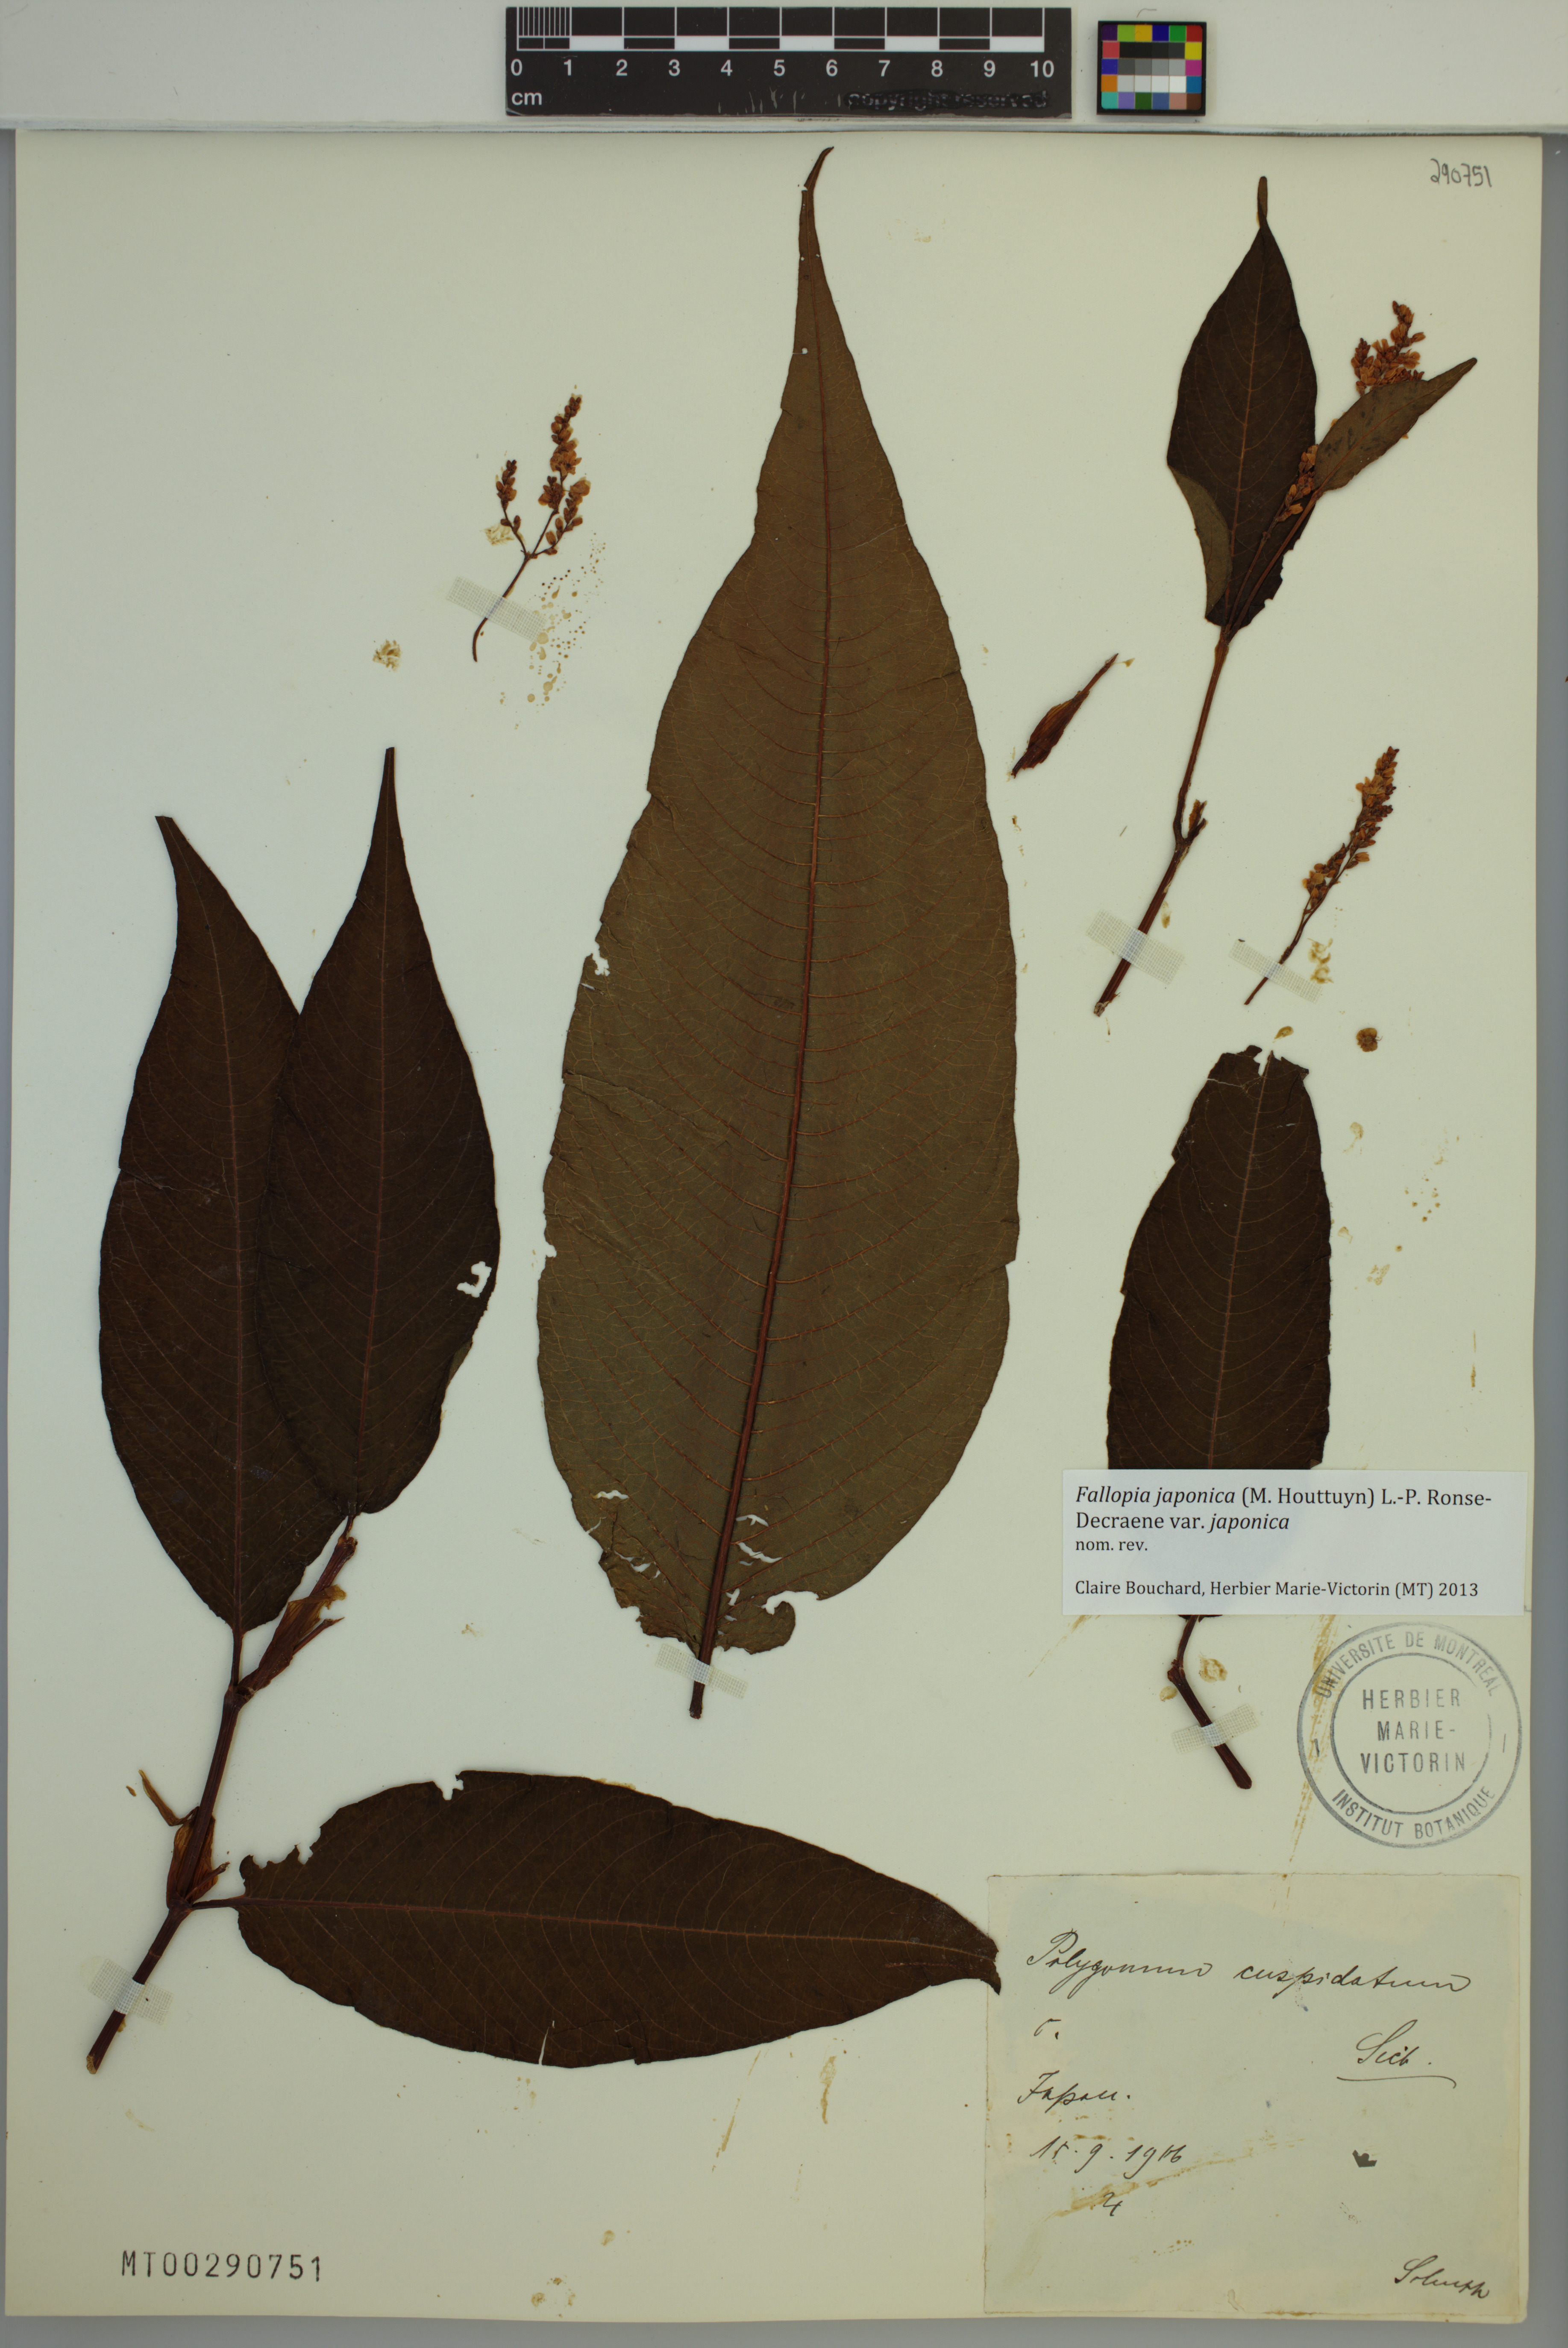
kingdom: Plantae
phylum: Tracheophyta
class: Magnoliopsida
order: Caryophyllales
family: Polygonaceae
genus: Reynoutria
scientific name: Reynoutria japonica
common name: Japanese knotweed
